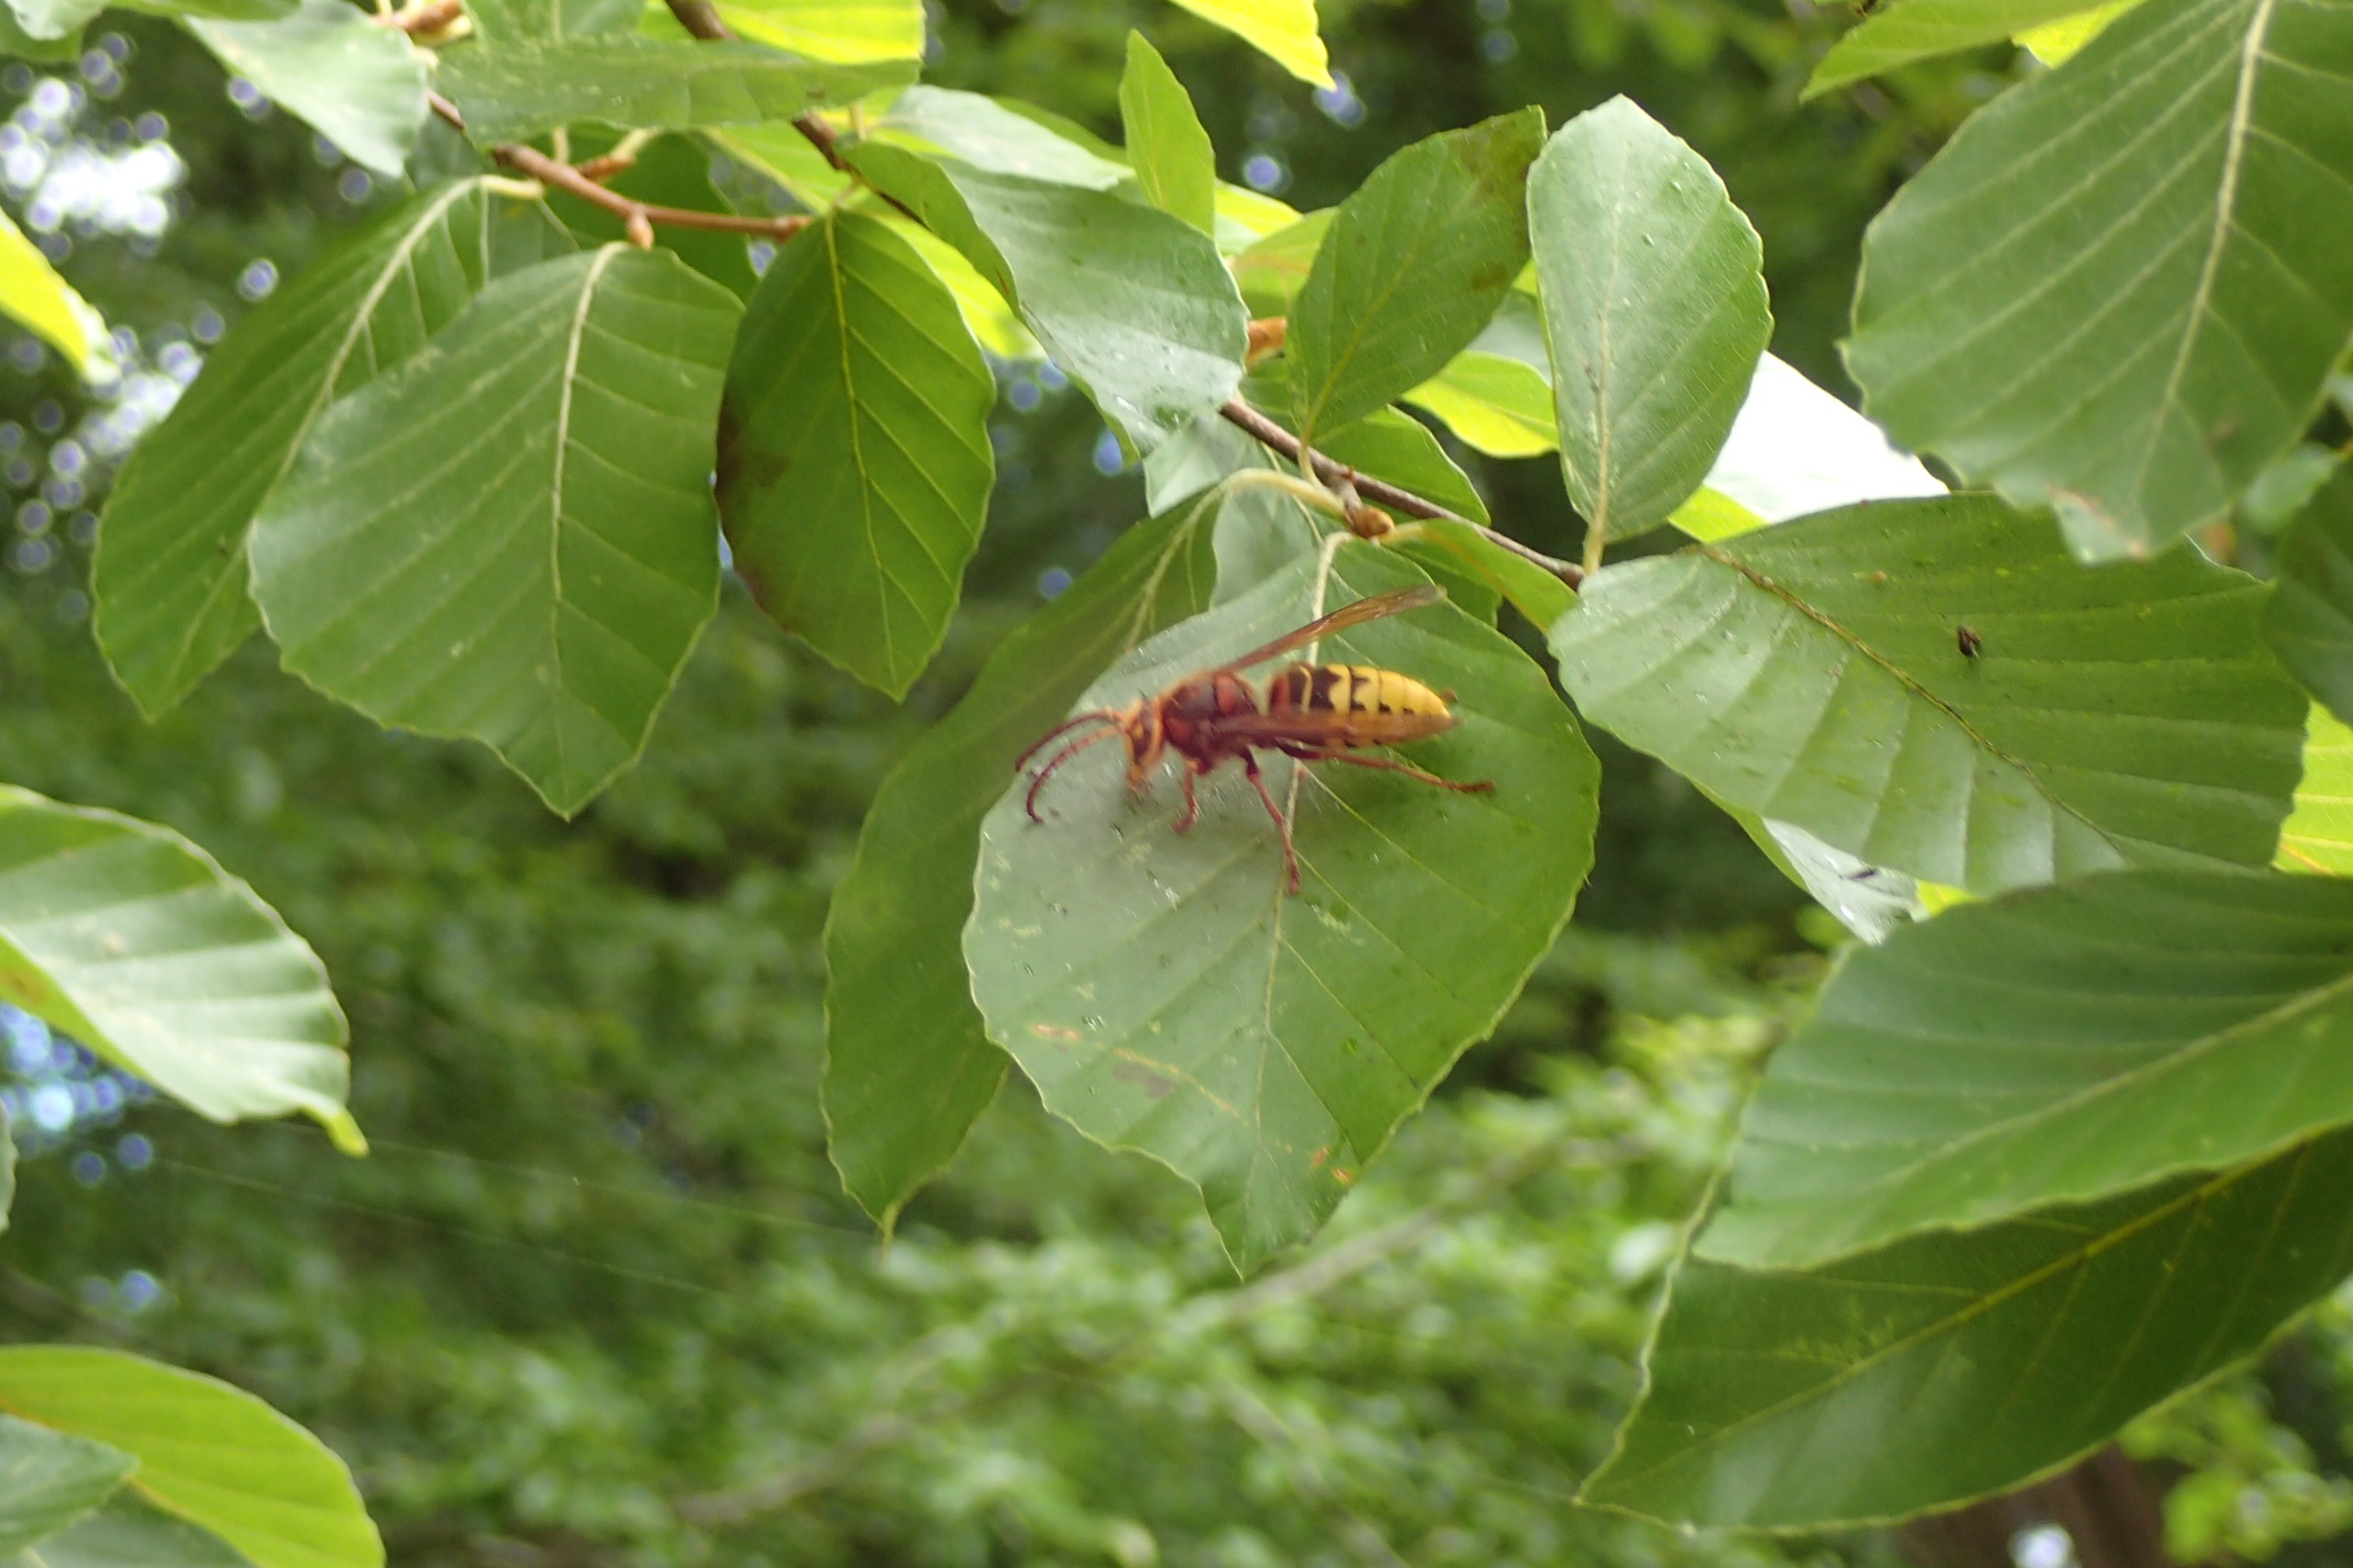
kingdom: Animalia
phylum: Arthropoda
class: Insecta
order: Hymenoptera
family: Vespidae
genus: Vespa
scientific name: Vespa crabro
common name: Stor gedehams
